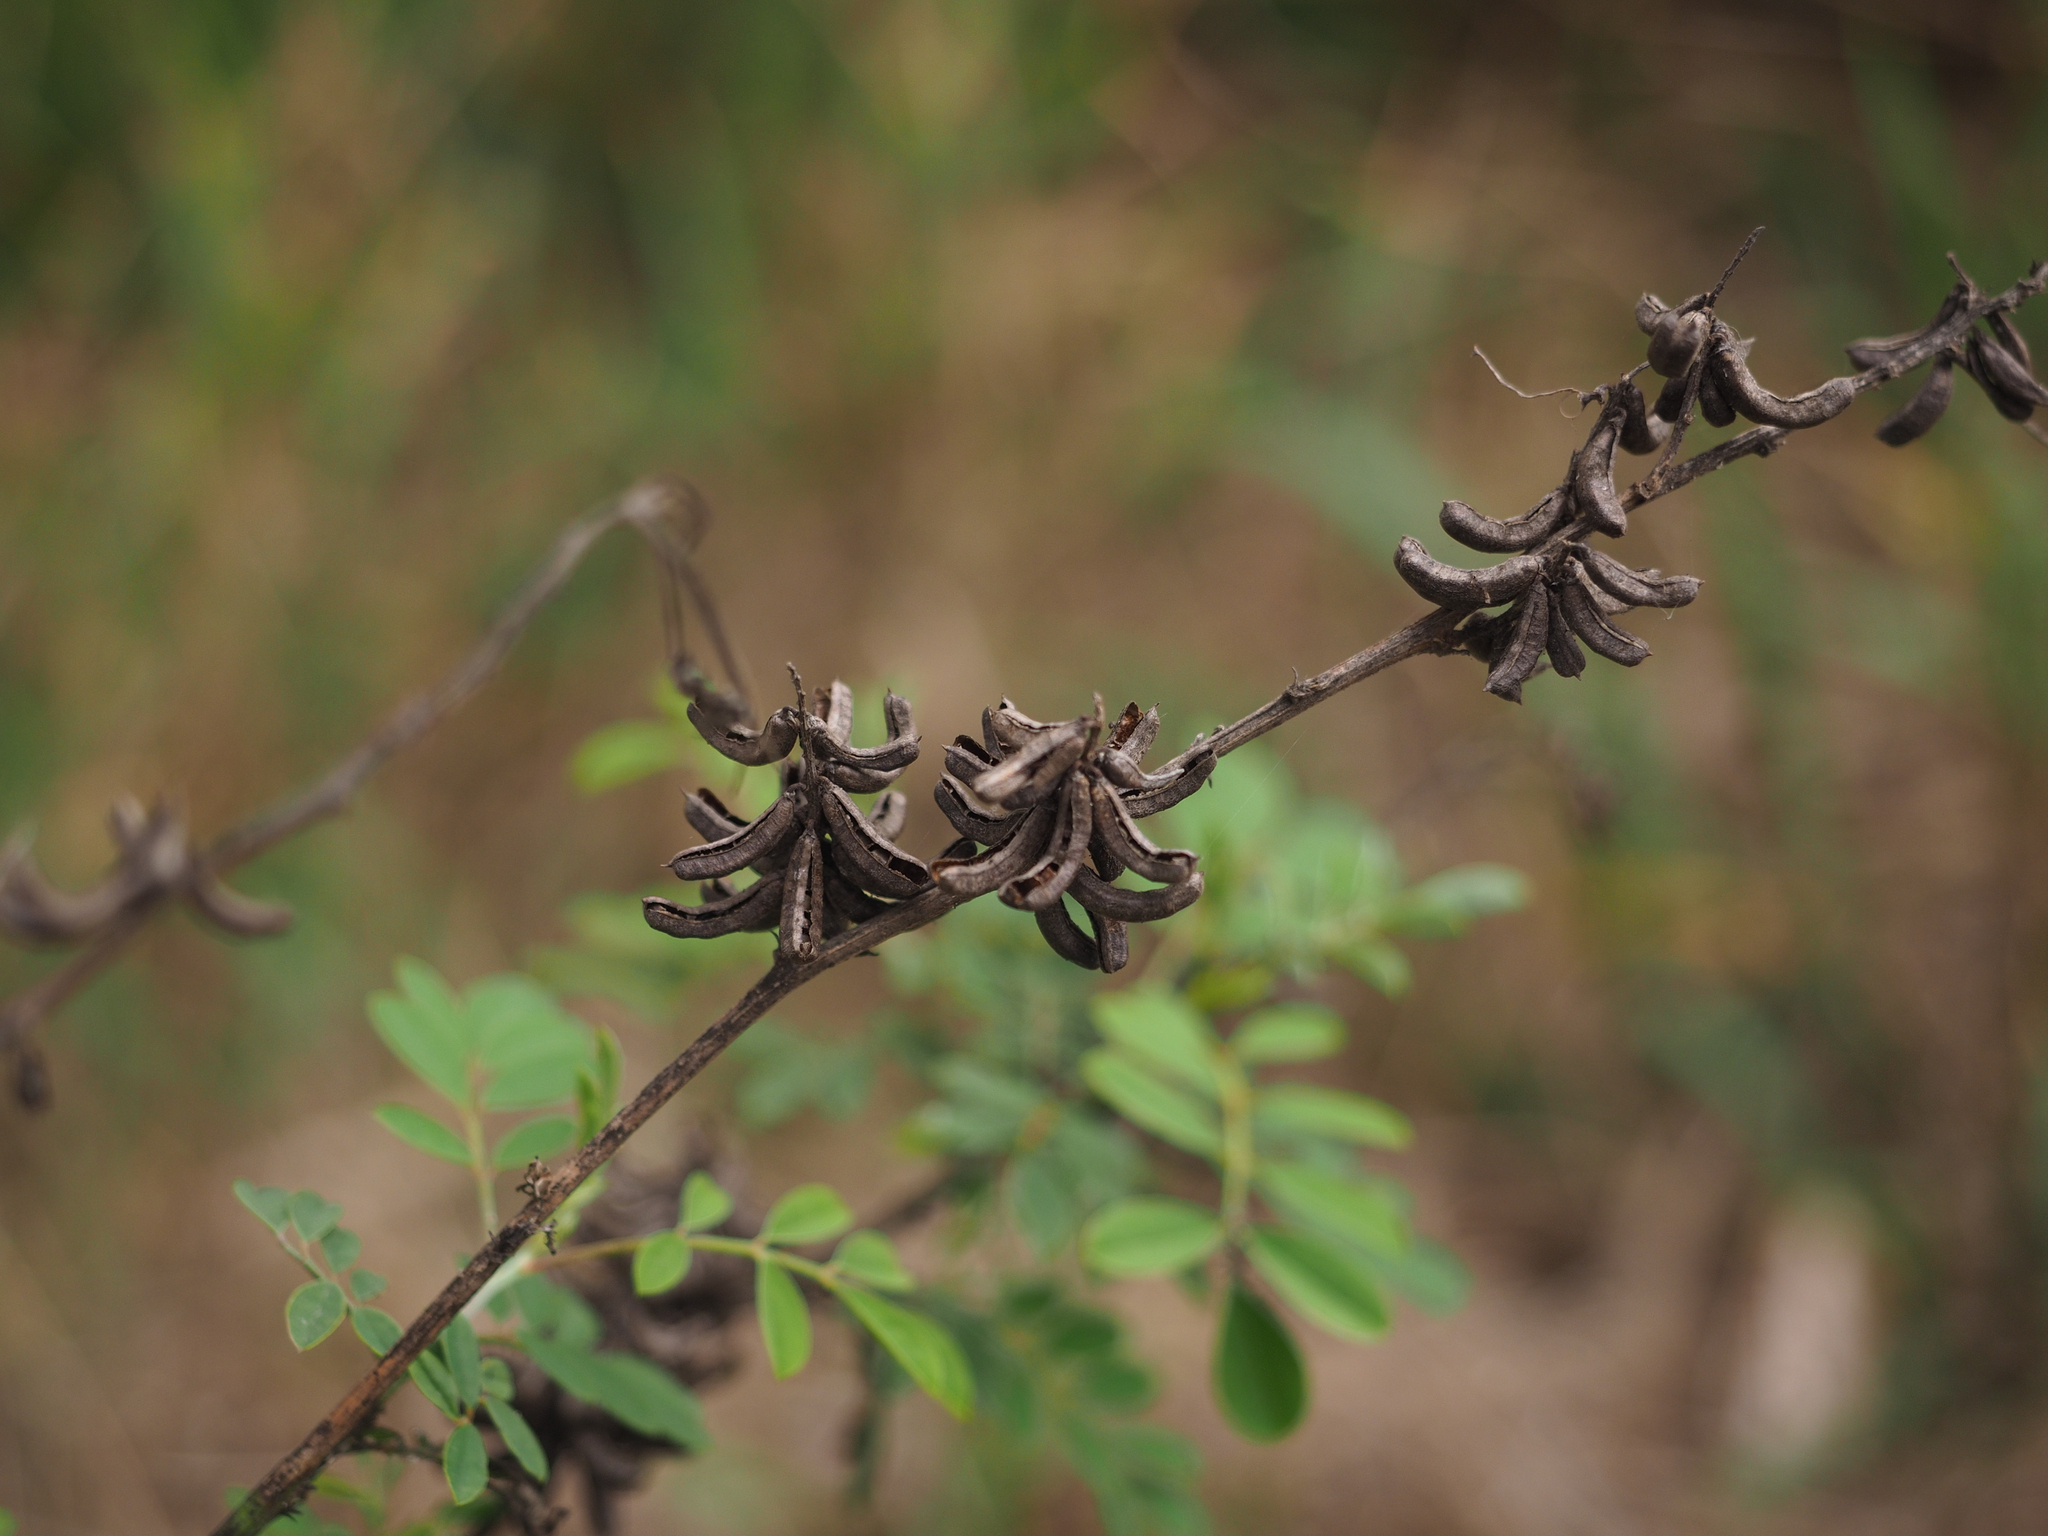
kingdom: Plantae
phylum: Tracheophyta
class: Magnoliopsida
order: Fabales
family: Fabaceae
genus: Indigofera
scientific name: Indigofera suffruticosa
